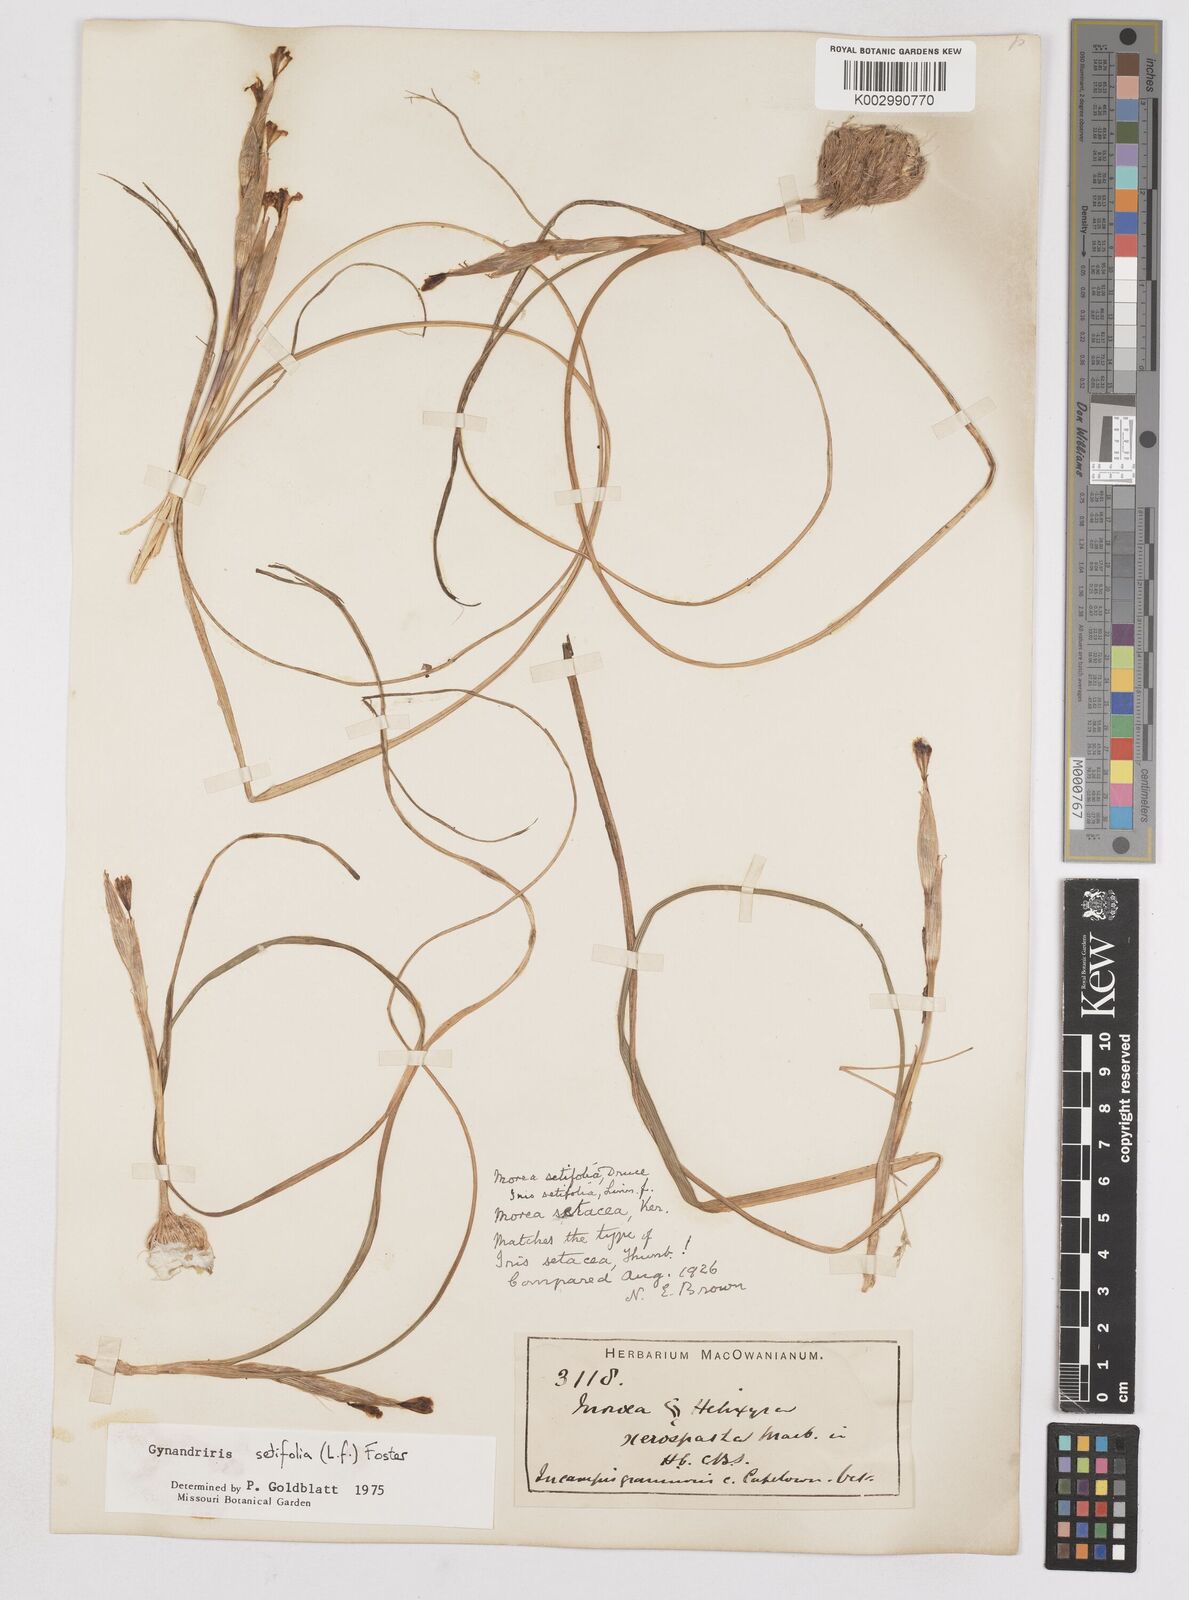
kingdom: Plantae
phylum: Tracheophyta
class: Liliopsida
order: Asparagales
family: Iridaceae
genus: Moraea
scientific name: Moraea setifolia
